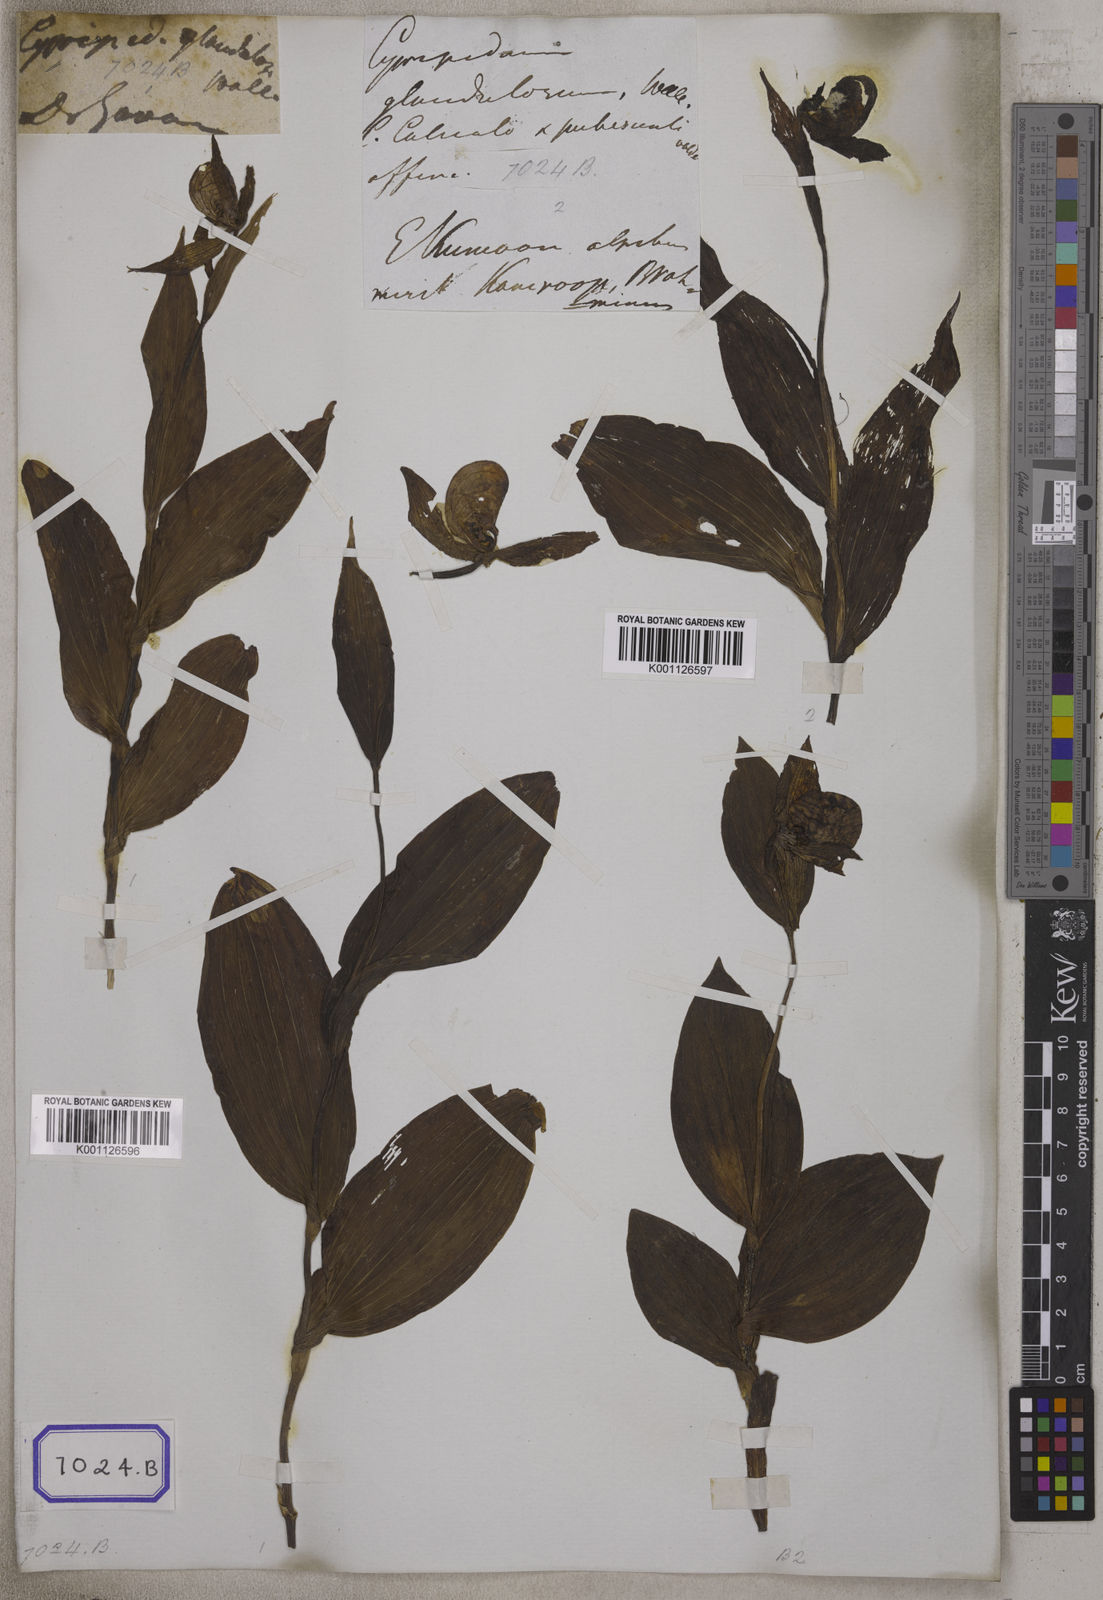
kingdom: Plantae
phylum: Tracheophyta
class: Liliopsida
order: Asparagales
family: Orchidaceae
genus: Cypripedium
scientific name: Cypripedium cordigerum
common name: Heart-shaped lip cypripedium
